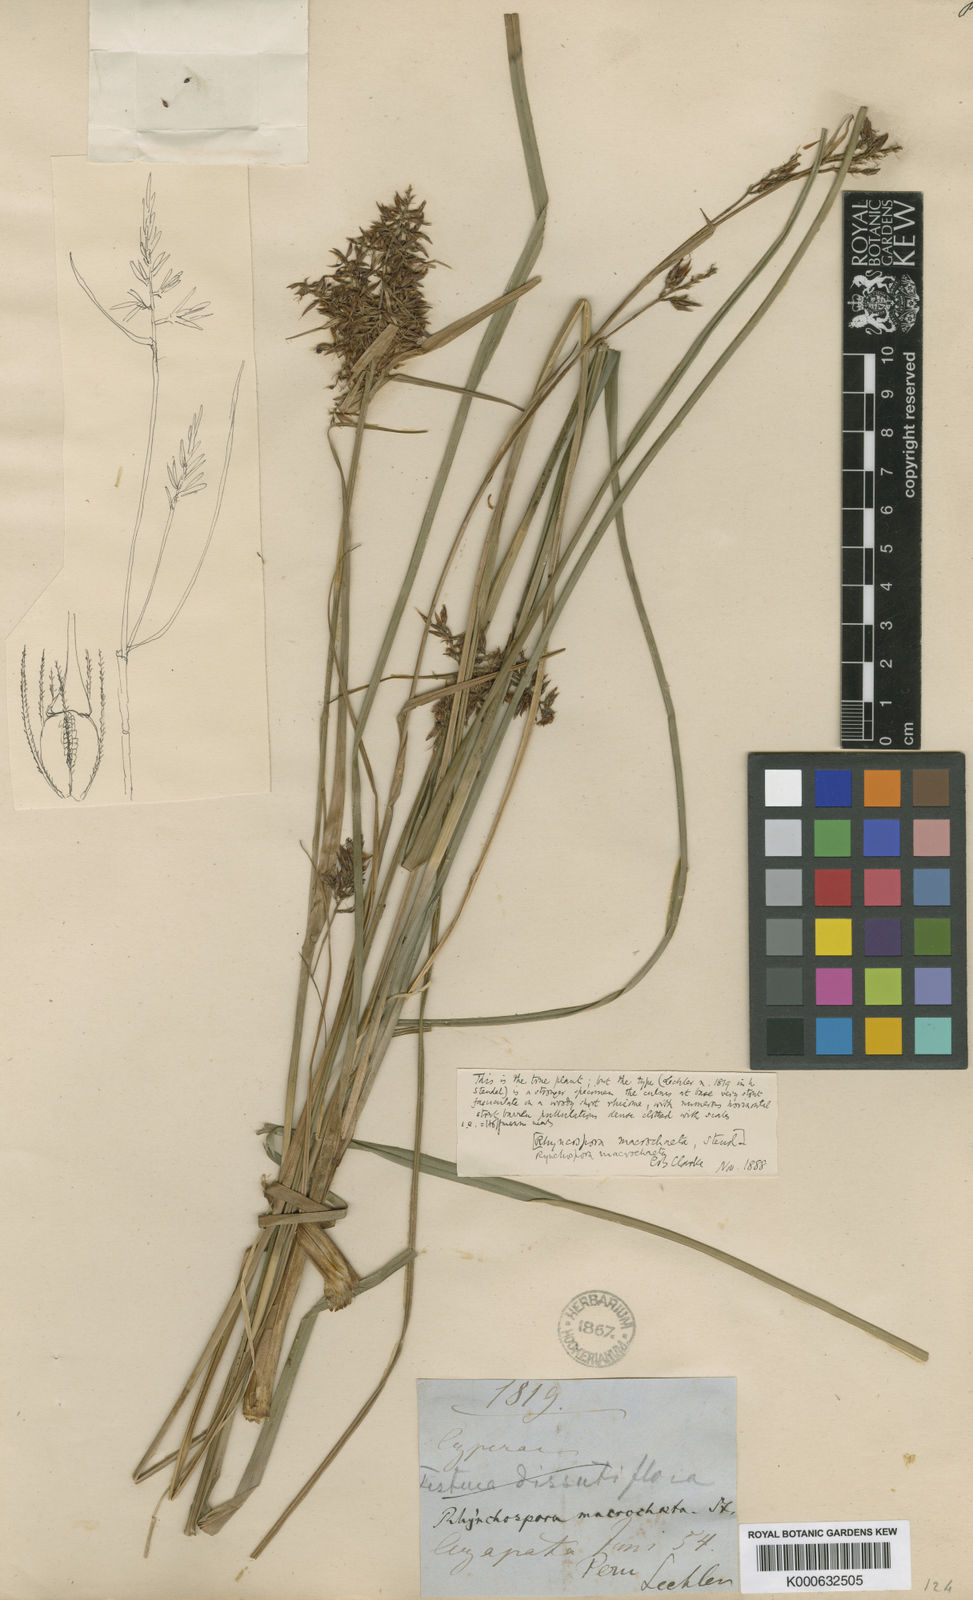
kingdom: Plantae
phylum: Tracheophyta
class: Liliopsida
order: Poales
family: Cyperaceae
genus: Rhynchospora
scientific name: Rhynchospora macrochaeta
